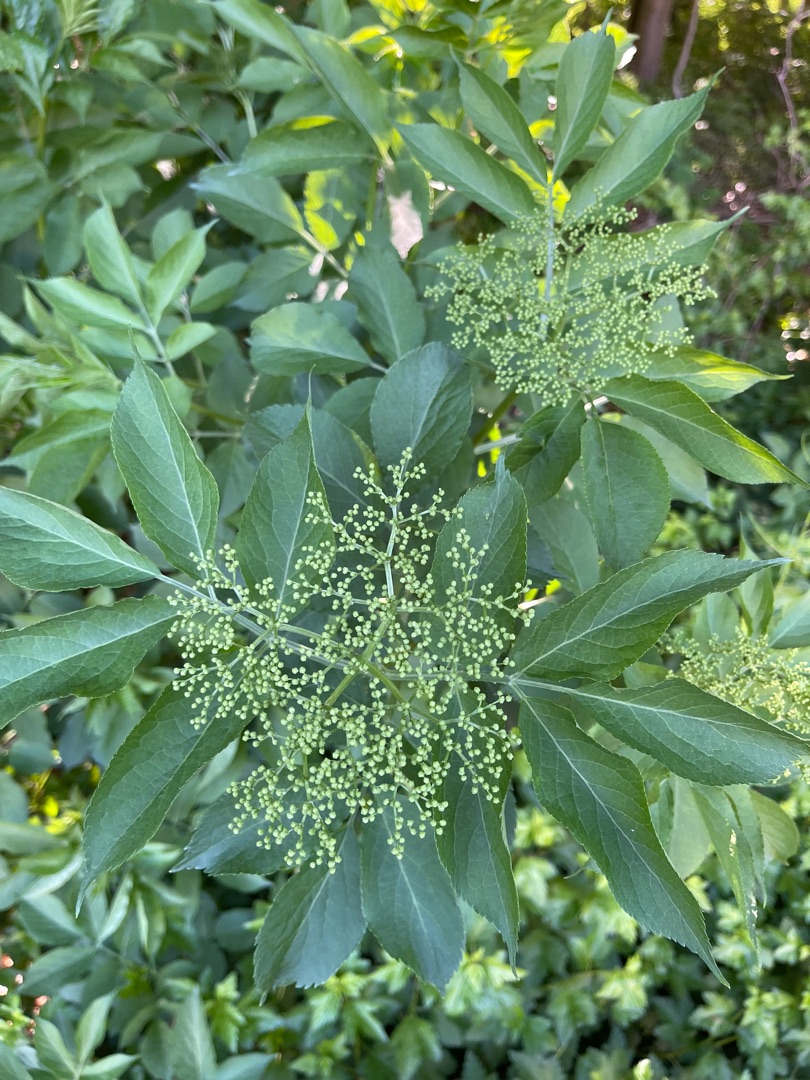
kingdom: Plantae
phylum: Tracheophyta
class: Magnoliopsida
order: Dipsacales
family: Viburnaceae
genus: Sambucus
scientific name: Sambucus nigra
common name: Almindelig hyld
